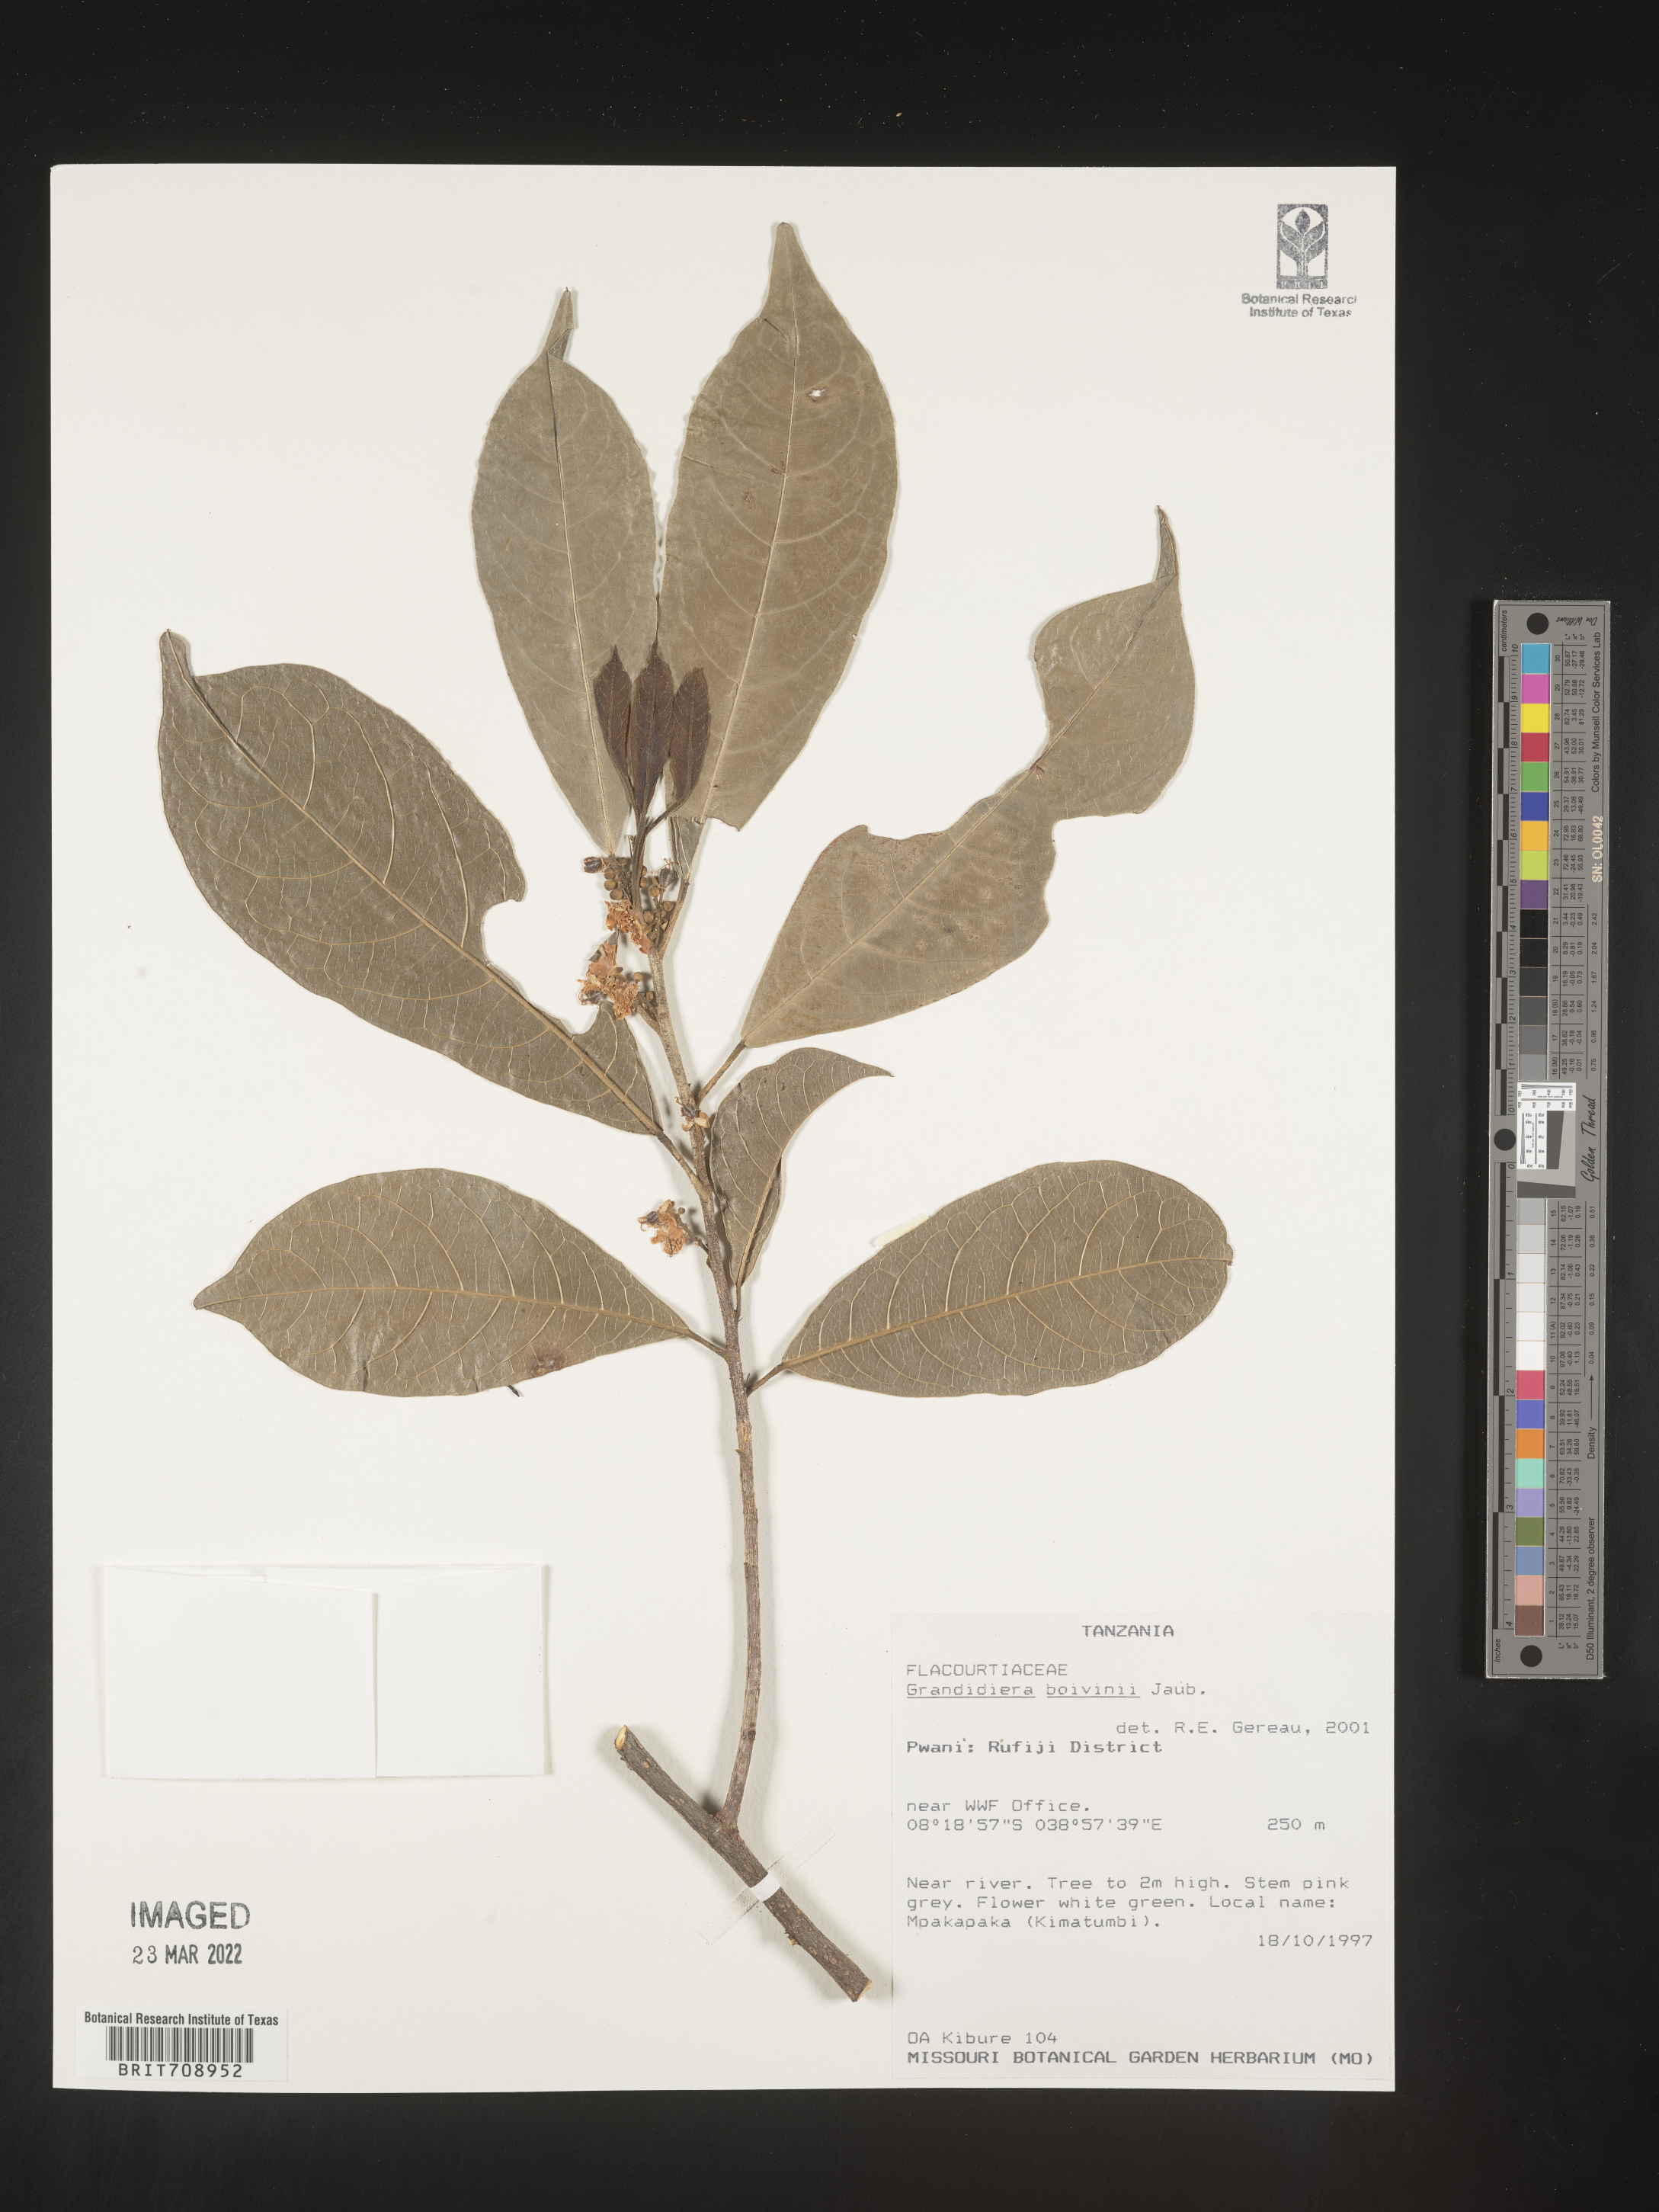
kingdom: Plantae
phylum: Tracheophyta
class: Magnoliopsida
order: Malpighiales
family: Achariaceae
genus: Grandidiera
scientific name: Grandidiera
